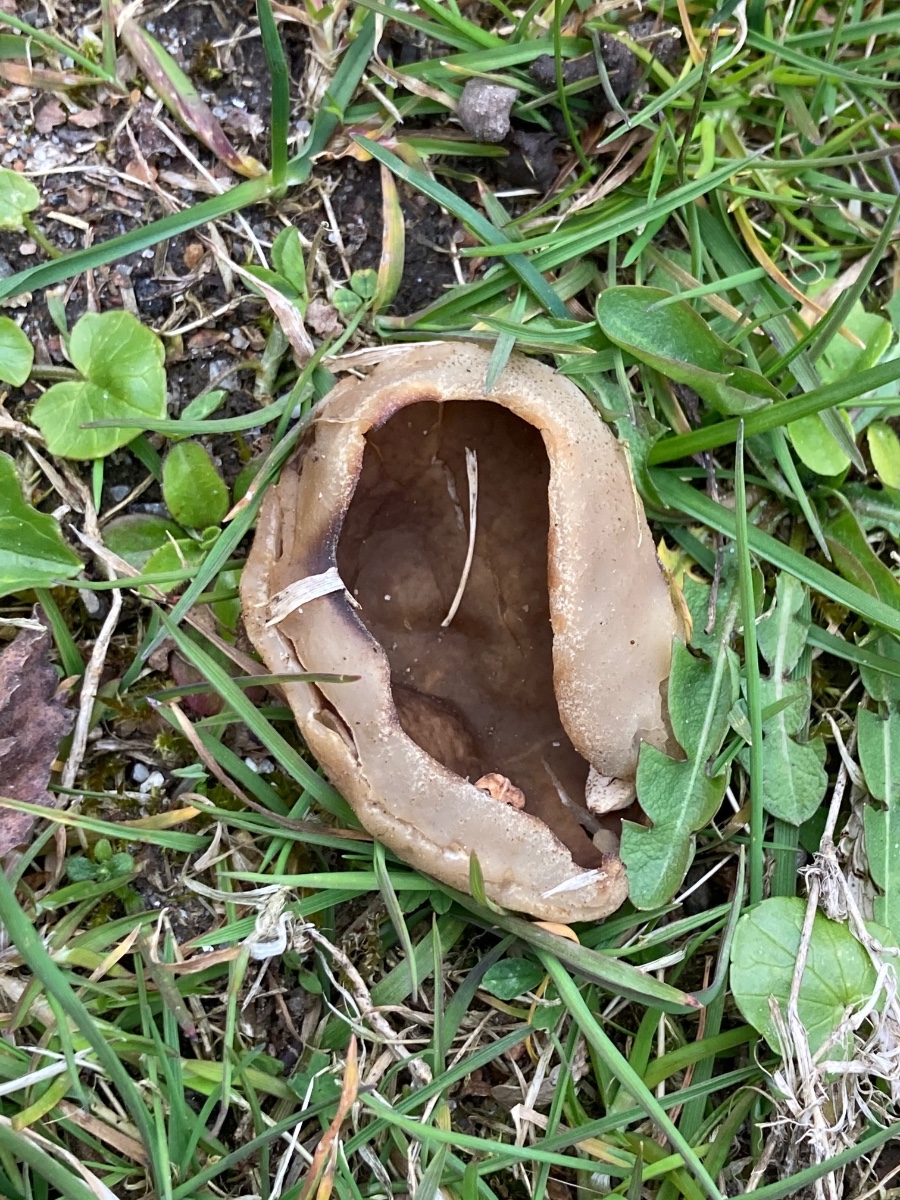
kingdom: Fungi
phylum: Ascomycota
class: Pezizomycetes
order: Pezizales
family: Morchellaceae
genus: Disciotis
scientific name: Disciotis venosa
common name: klor-bægermorkel
